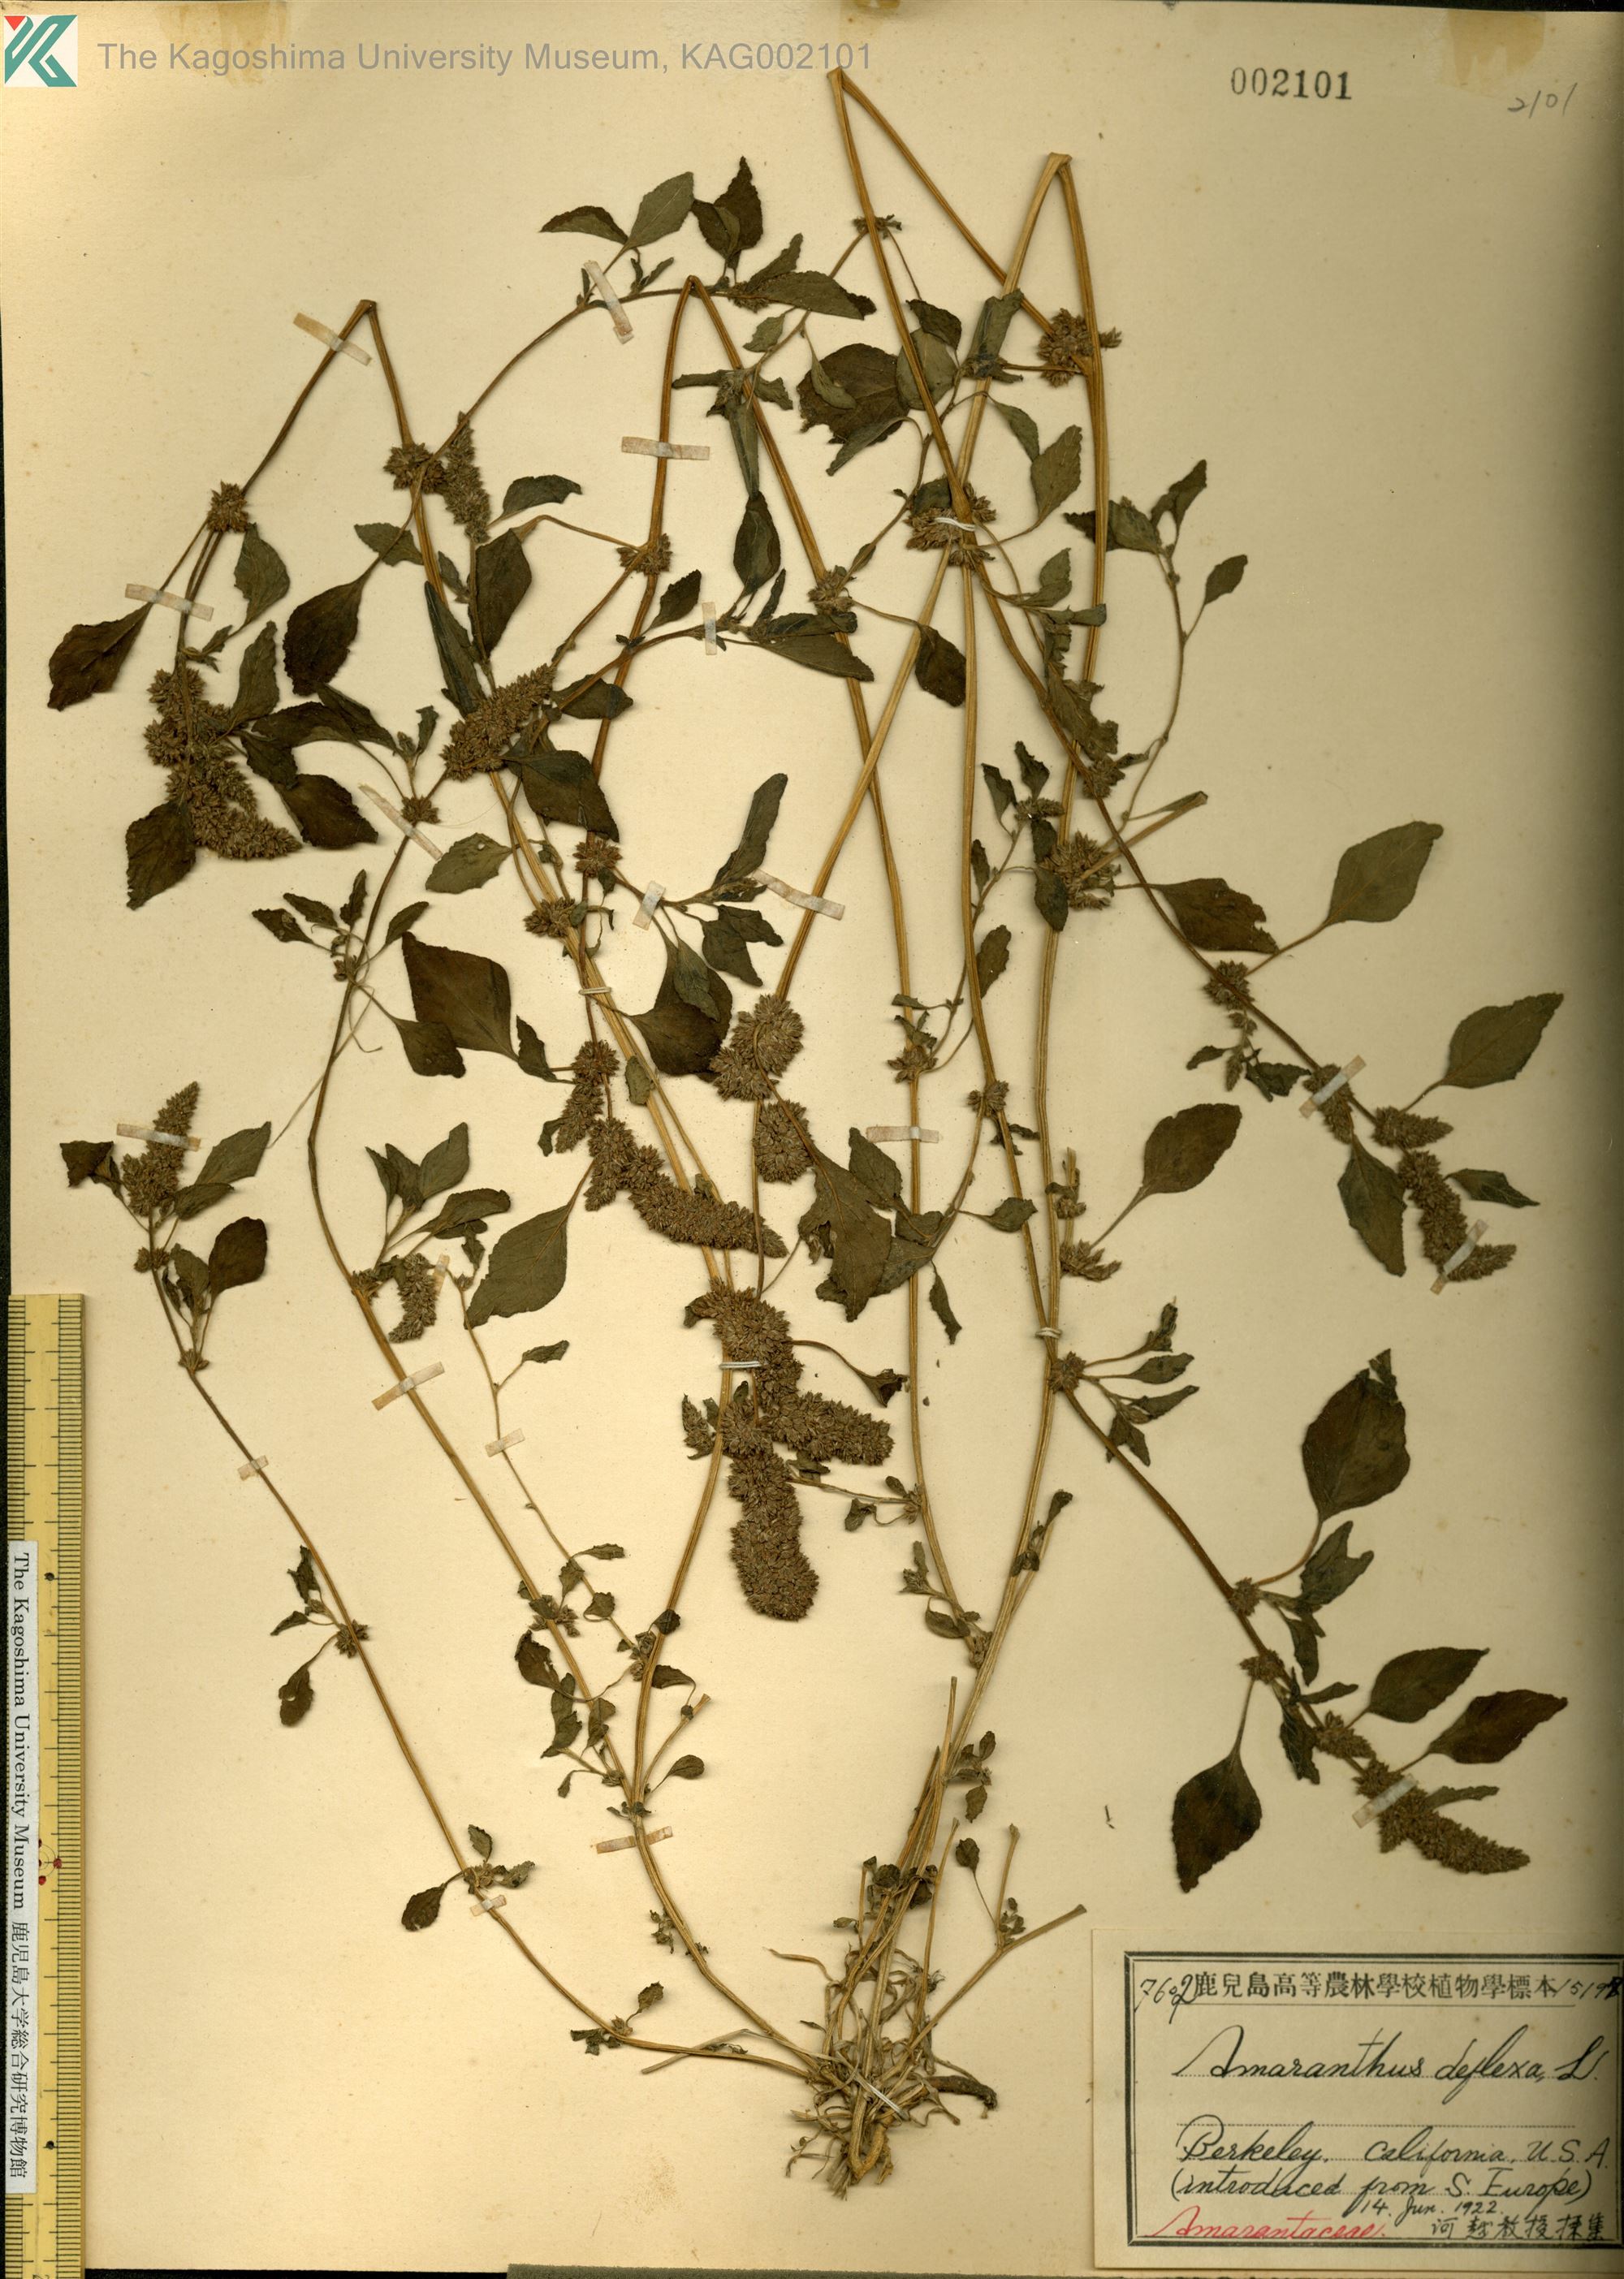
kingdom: Plantae
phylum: Tracheophyta
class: Magnoliopsida
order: Caryophyllales
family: Amaranthaceae
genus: Amaranthus
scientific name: Amaranthus deflexus
